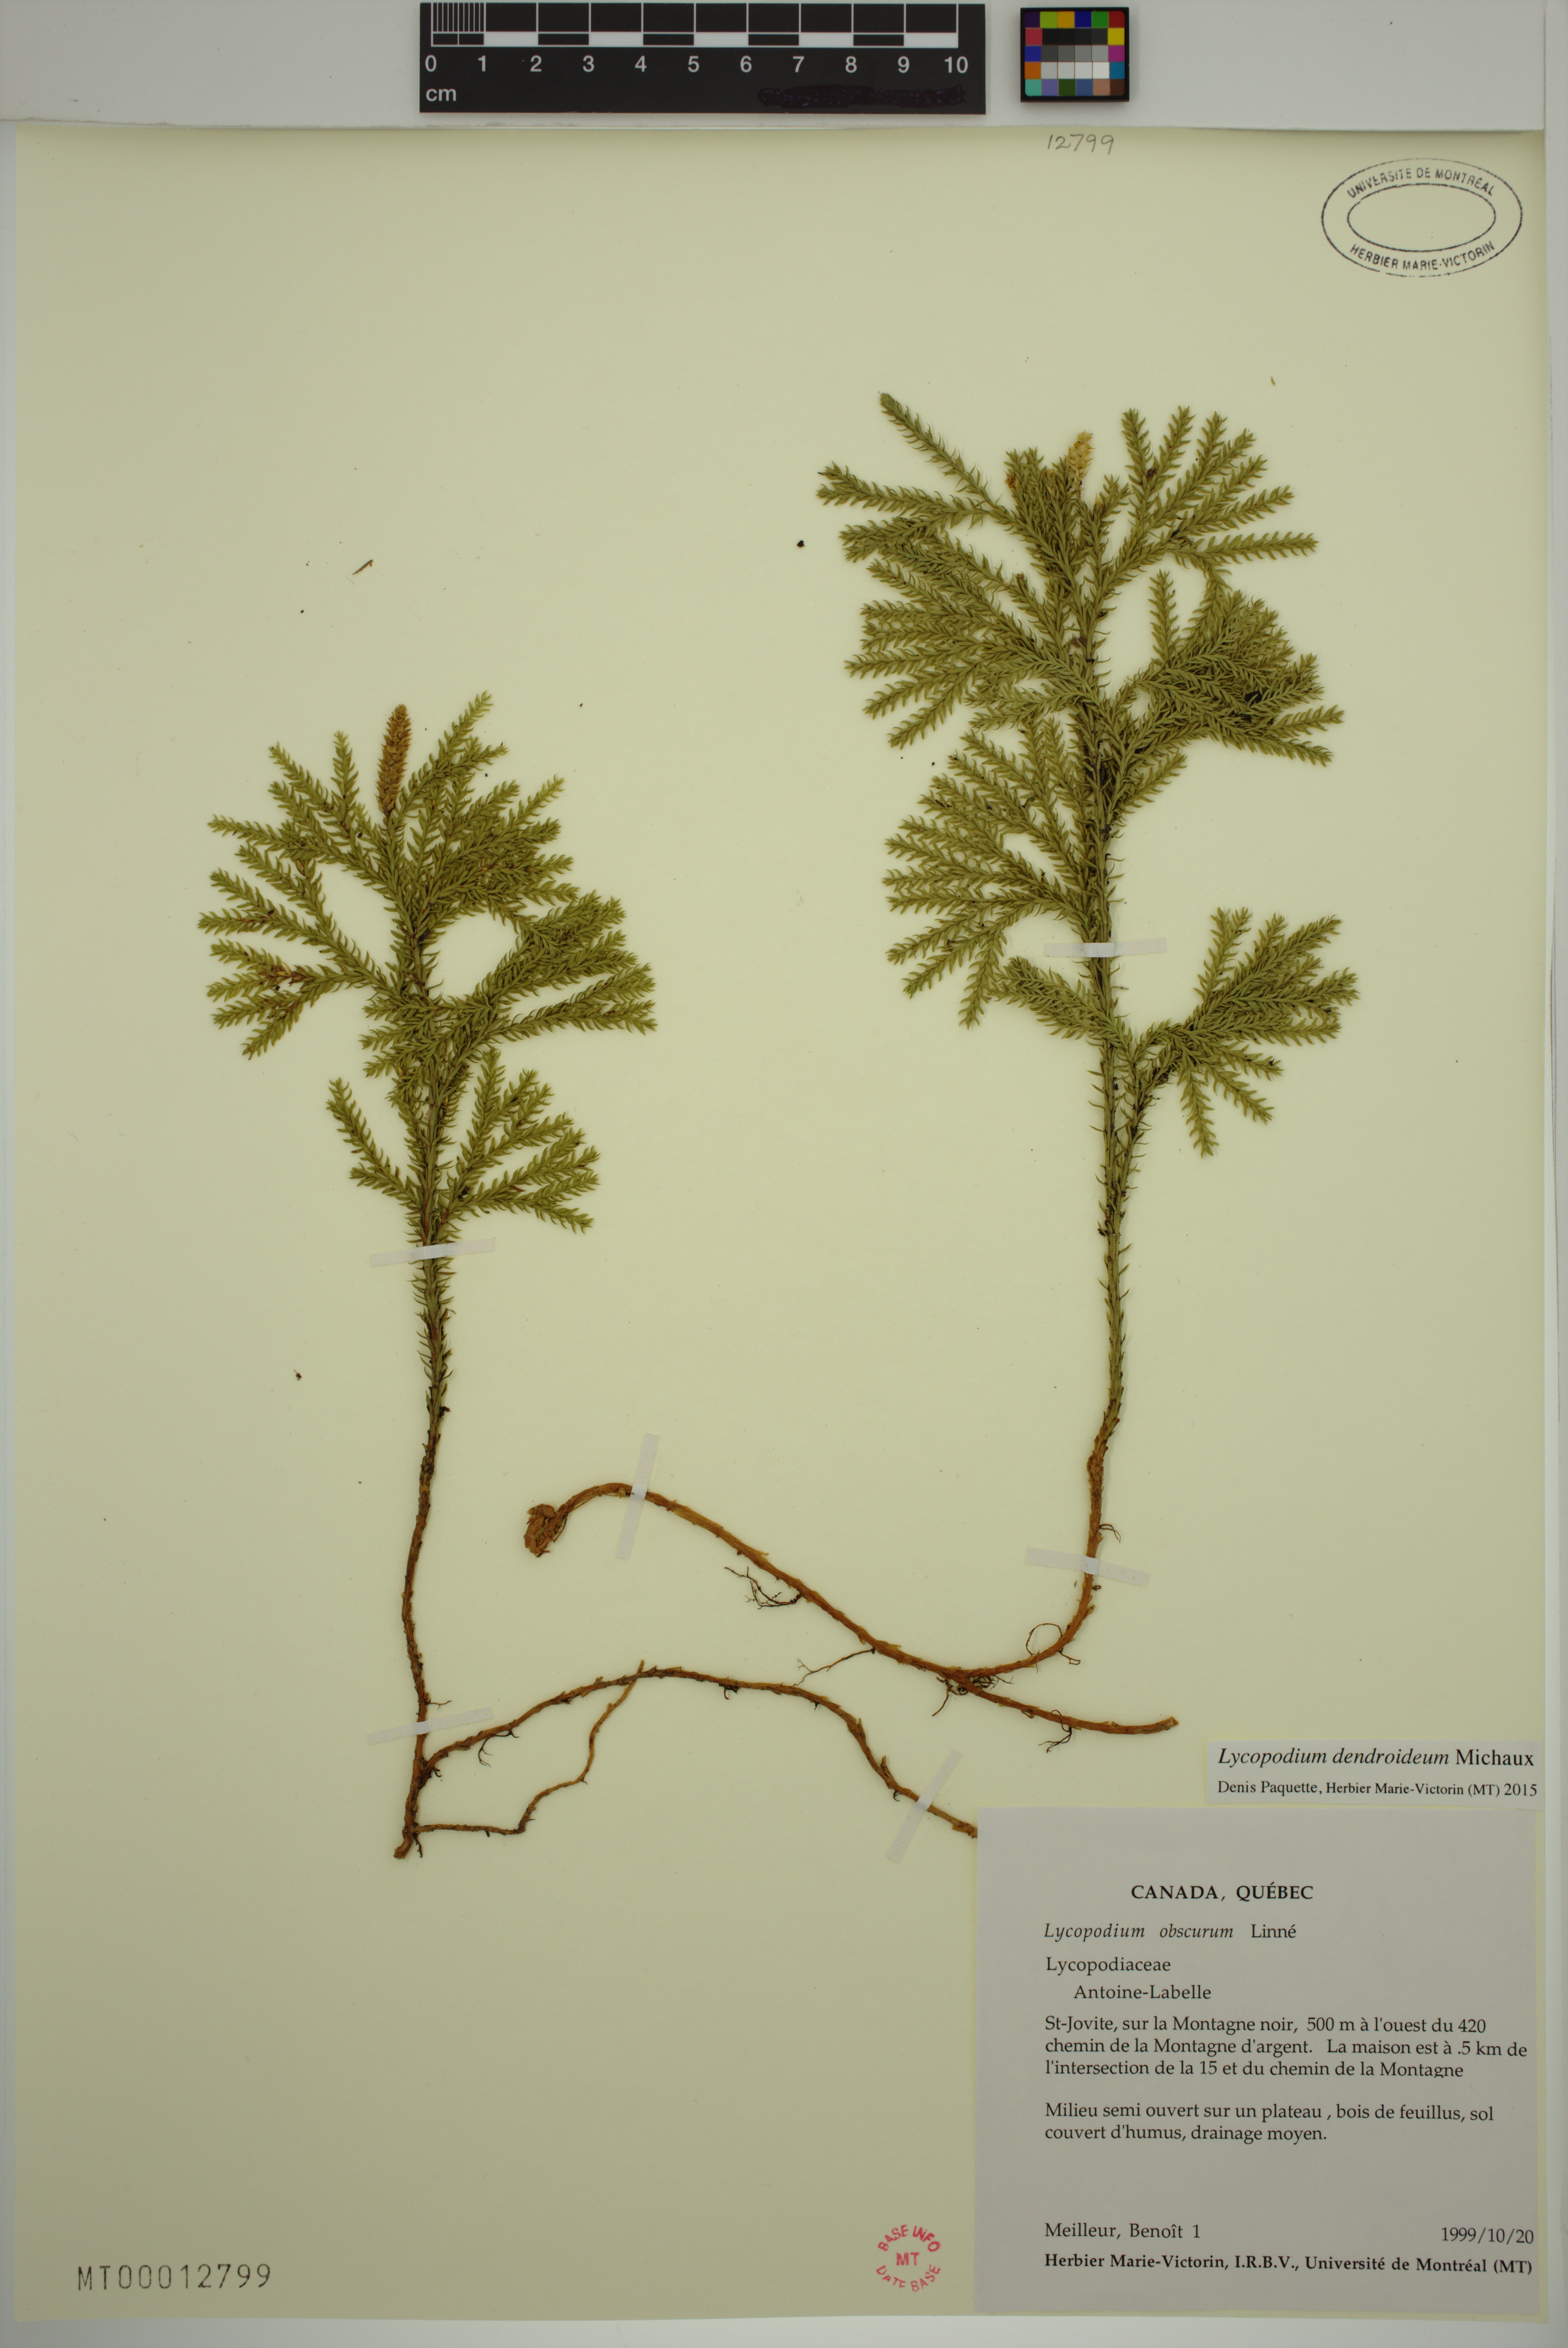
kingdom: Plantae
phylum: Tracheophyta
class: Lycopodiopsida
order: Lycopodiales
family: Lycopodiaceae
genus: Dendrolycopodium
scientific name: Dendrolycopodium dendroideum
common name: Northern tree-clubmoss
